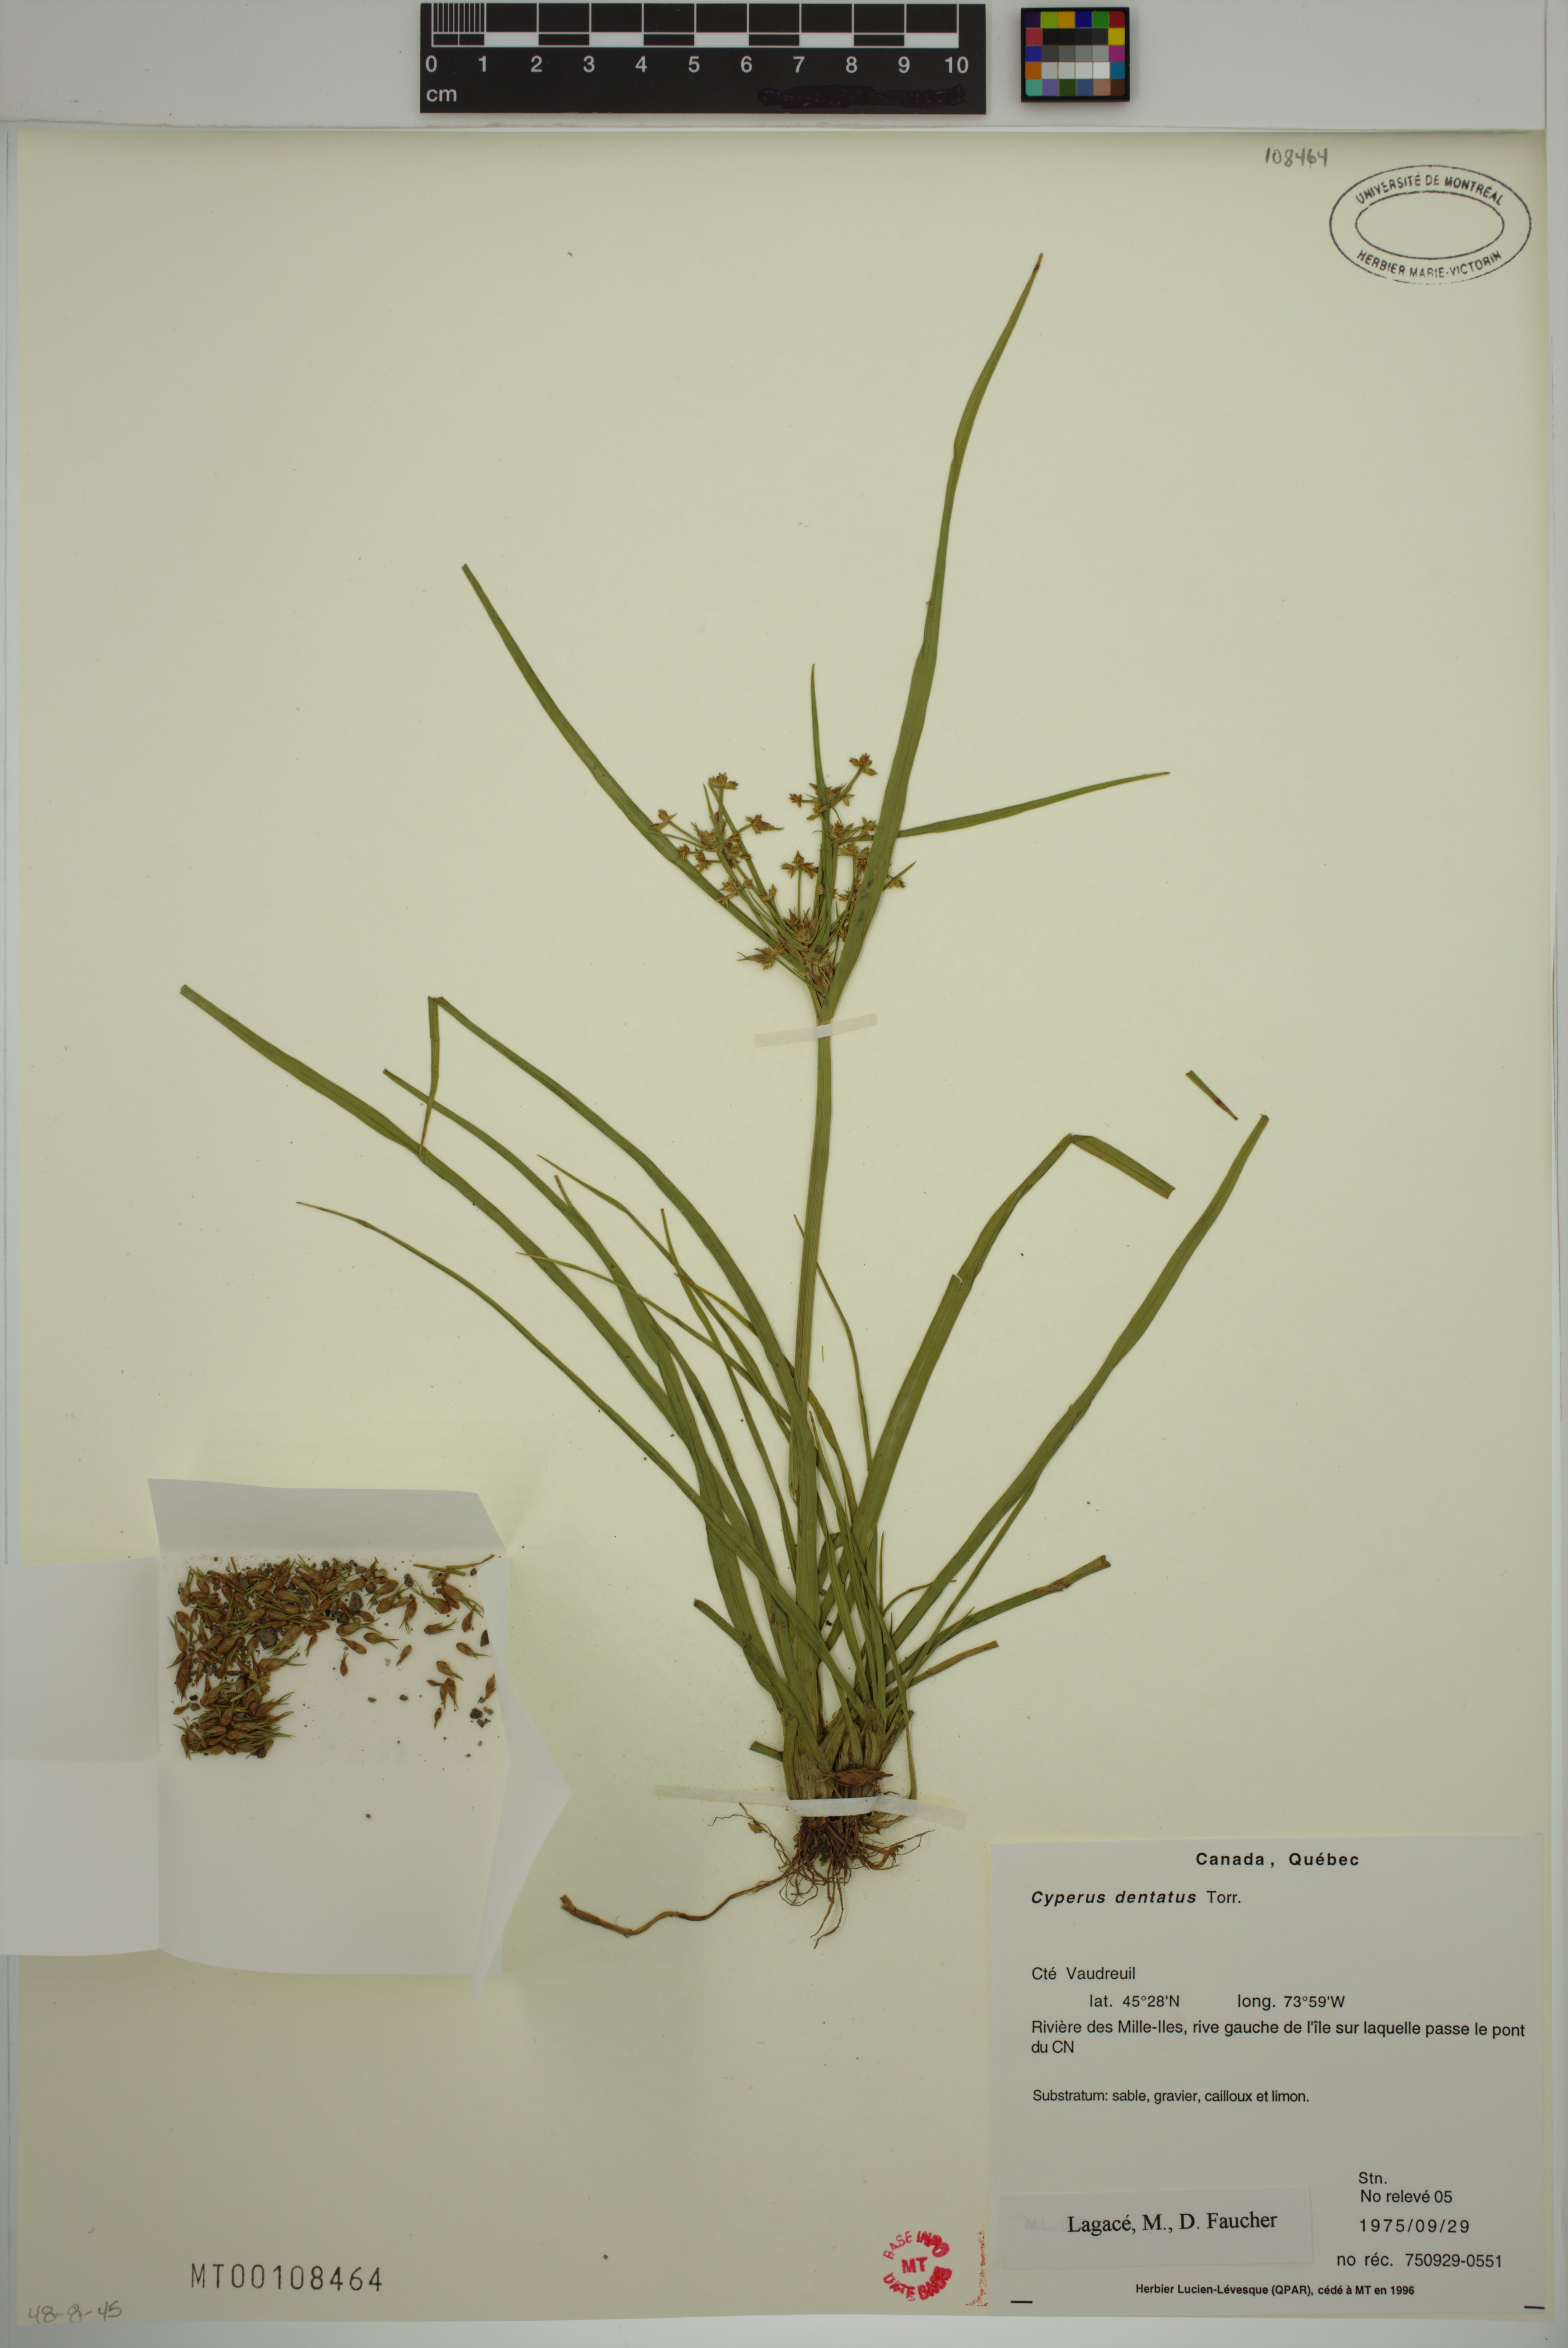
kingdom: Plantae
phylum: Tracheophyta
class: Liliopsida
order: Poales
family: Cyperaceae
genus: Cyperus
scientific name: Cyperus dentatus
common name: Dentate umbrella sedge
